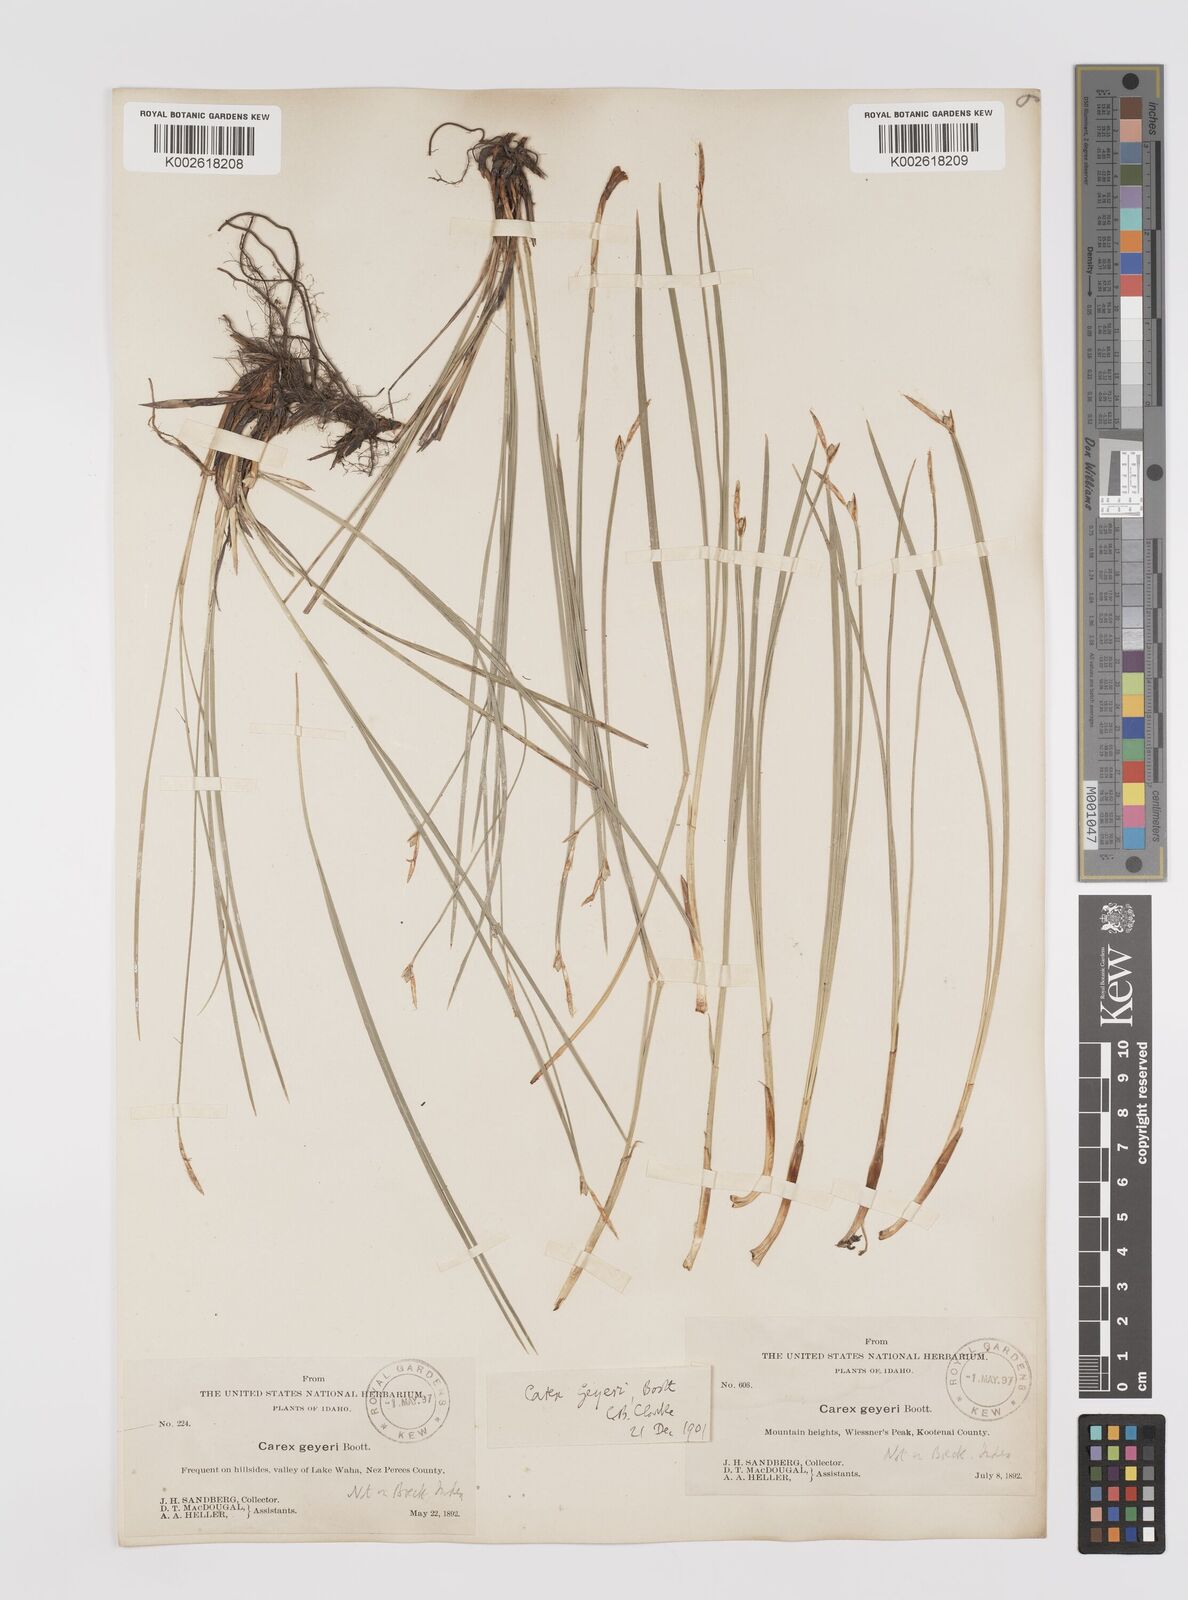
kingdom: Plantae
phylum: Tracheophyta
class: Liliopsida
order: Poales
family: Cyperaceae
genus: Carex
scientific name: Carex geyeri
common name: Elk sedge
